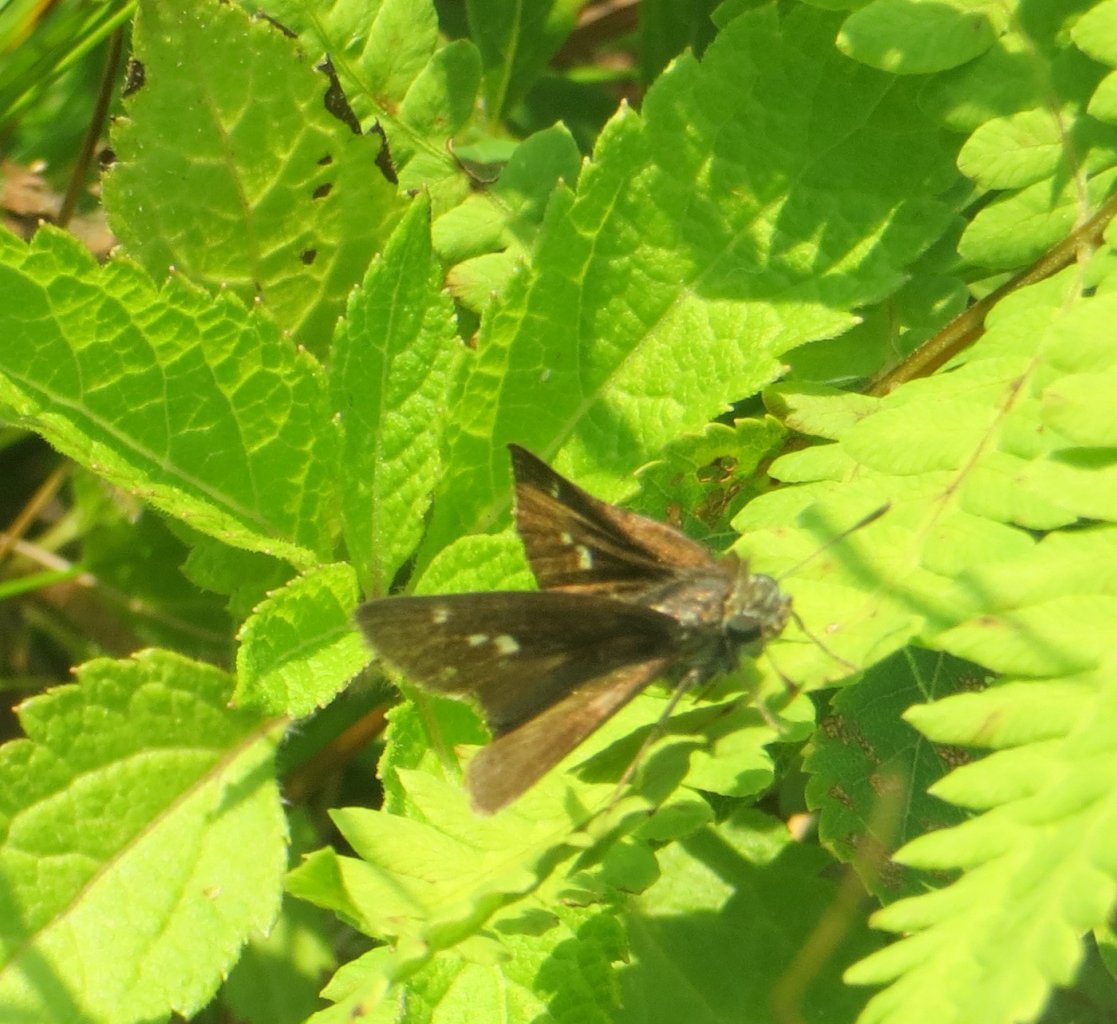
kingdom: Animalia
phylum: Arthropoda
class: Insecta
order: Lepidoptera
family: Hesperiidae
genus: Polites
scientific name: Polites egeremet
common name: Northern Broken-Dash
